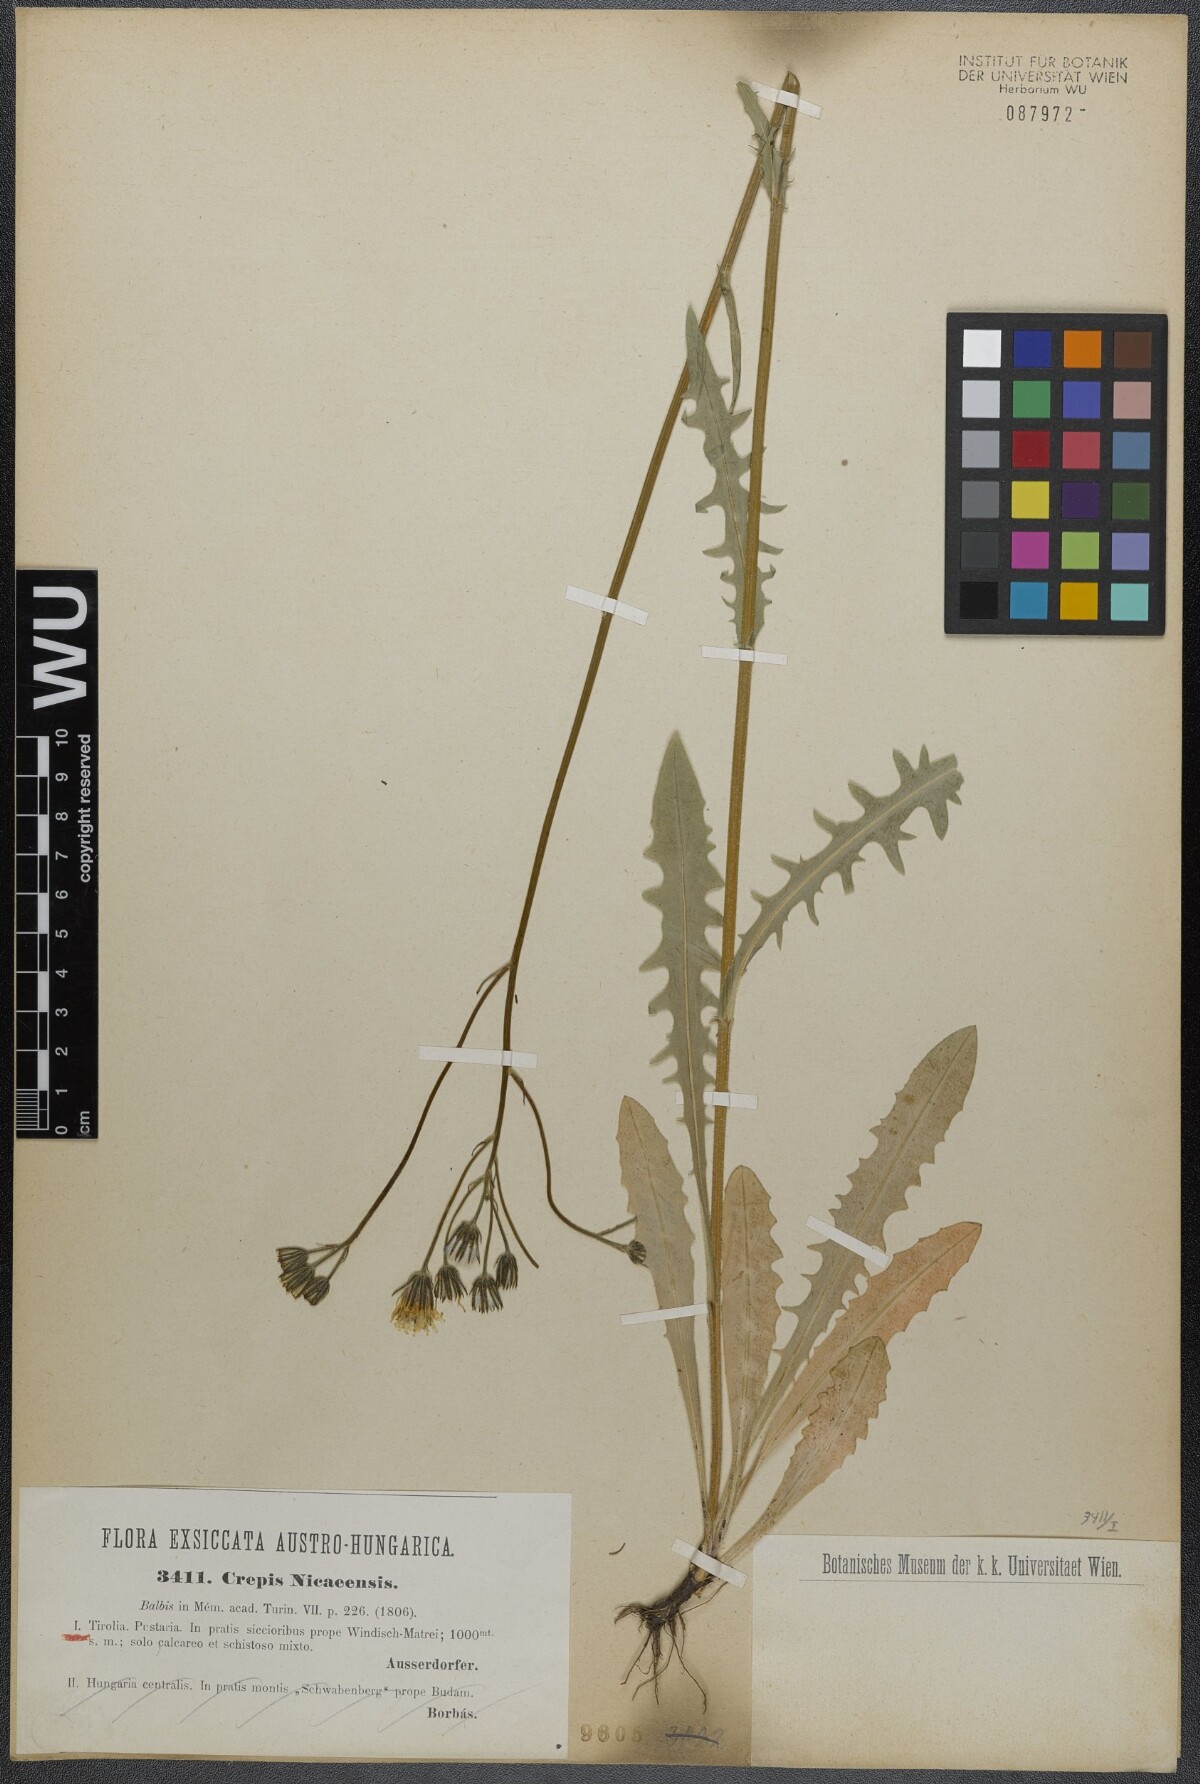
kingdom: Plantae
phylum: Tracheophyta
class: Magnoliopsida
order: Asterales
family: Asteraceae
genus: Crepis
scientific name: Crepis nicaeensis
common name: Turkish hawksbeard
